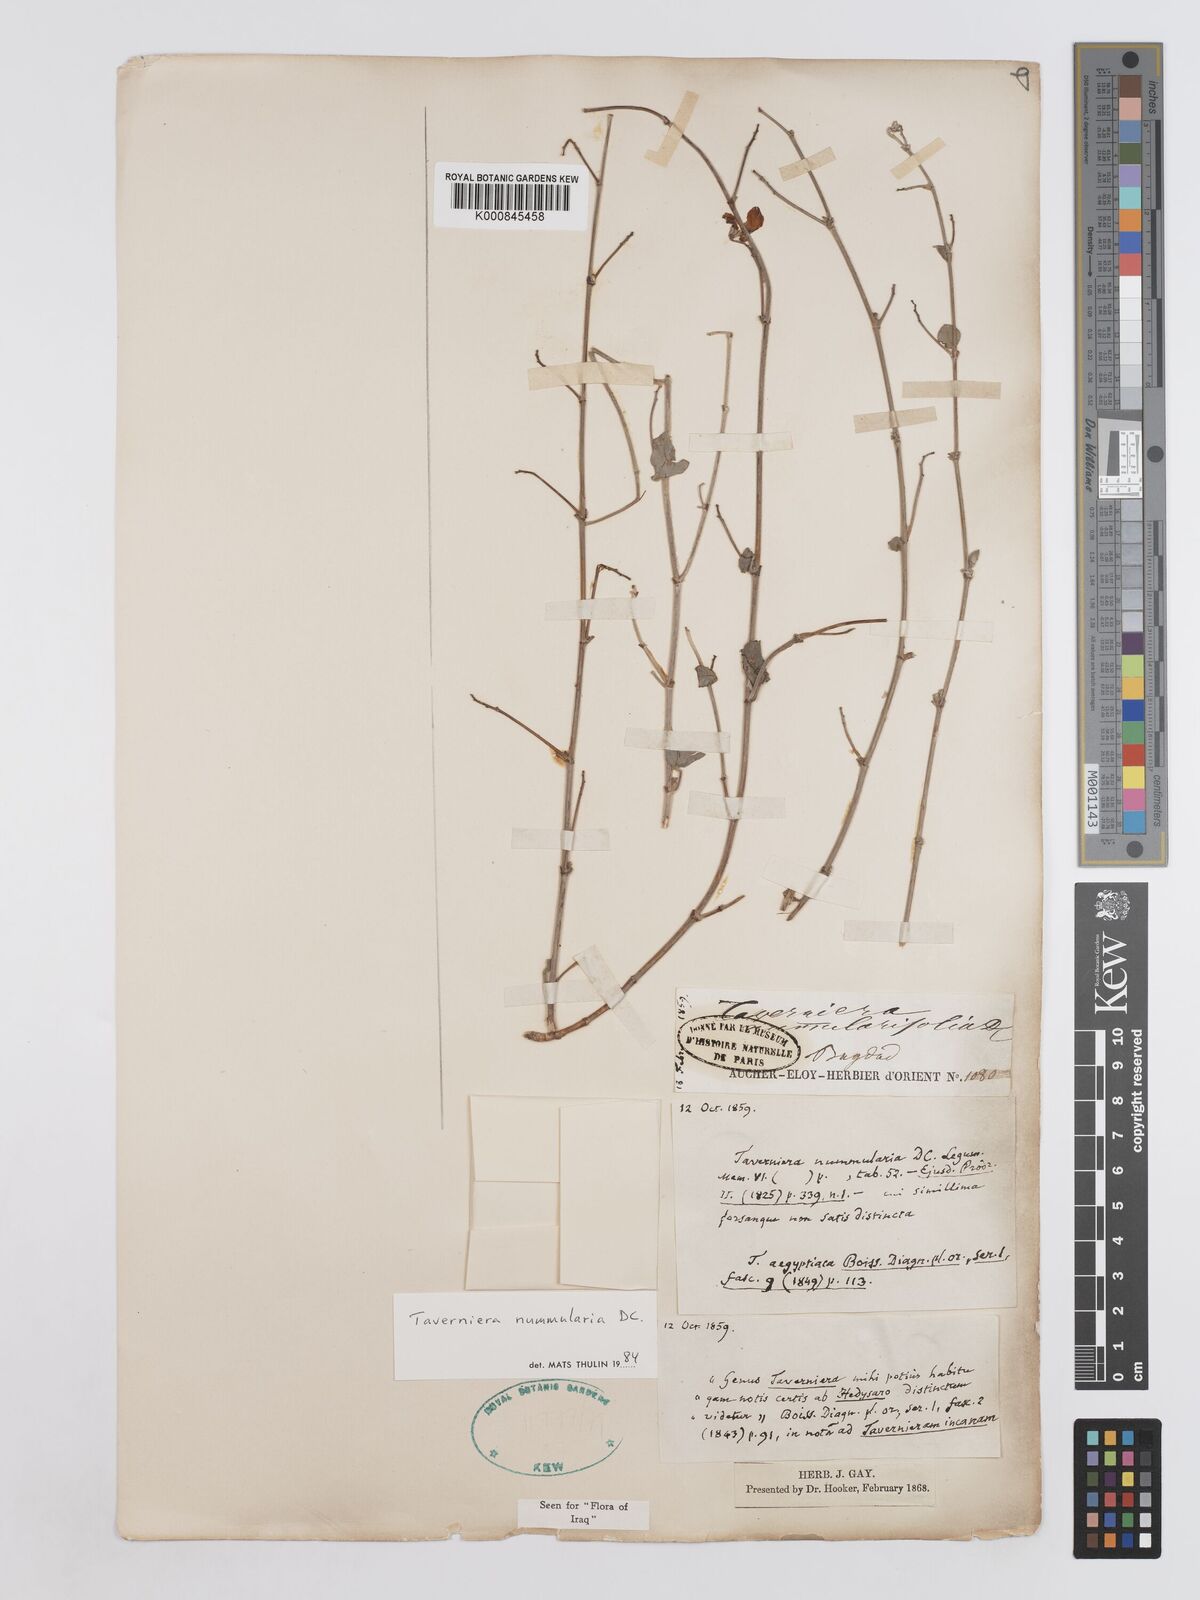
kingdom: Plantae
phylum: Tracheophyta
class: Magnoliopsida
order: Fabales
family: Fabaceae
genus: Taverniera
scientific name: Taverniera nummularia
